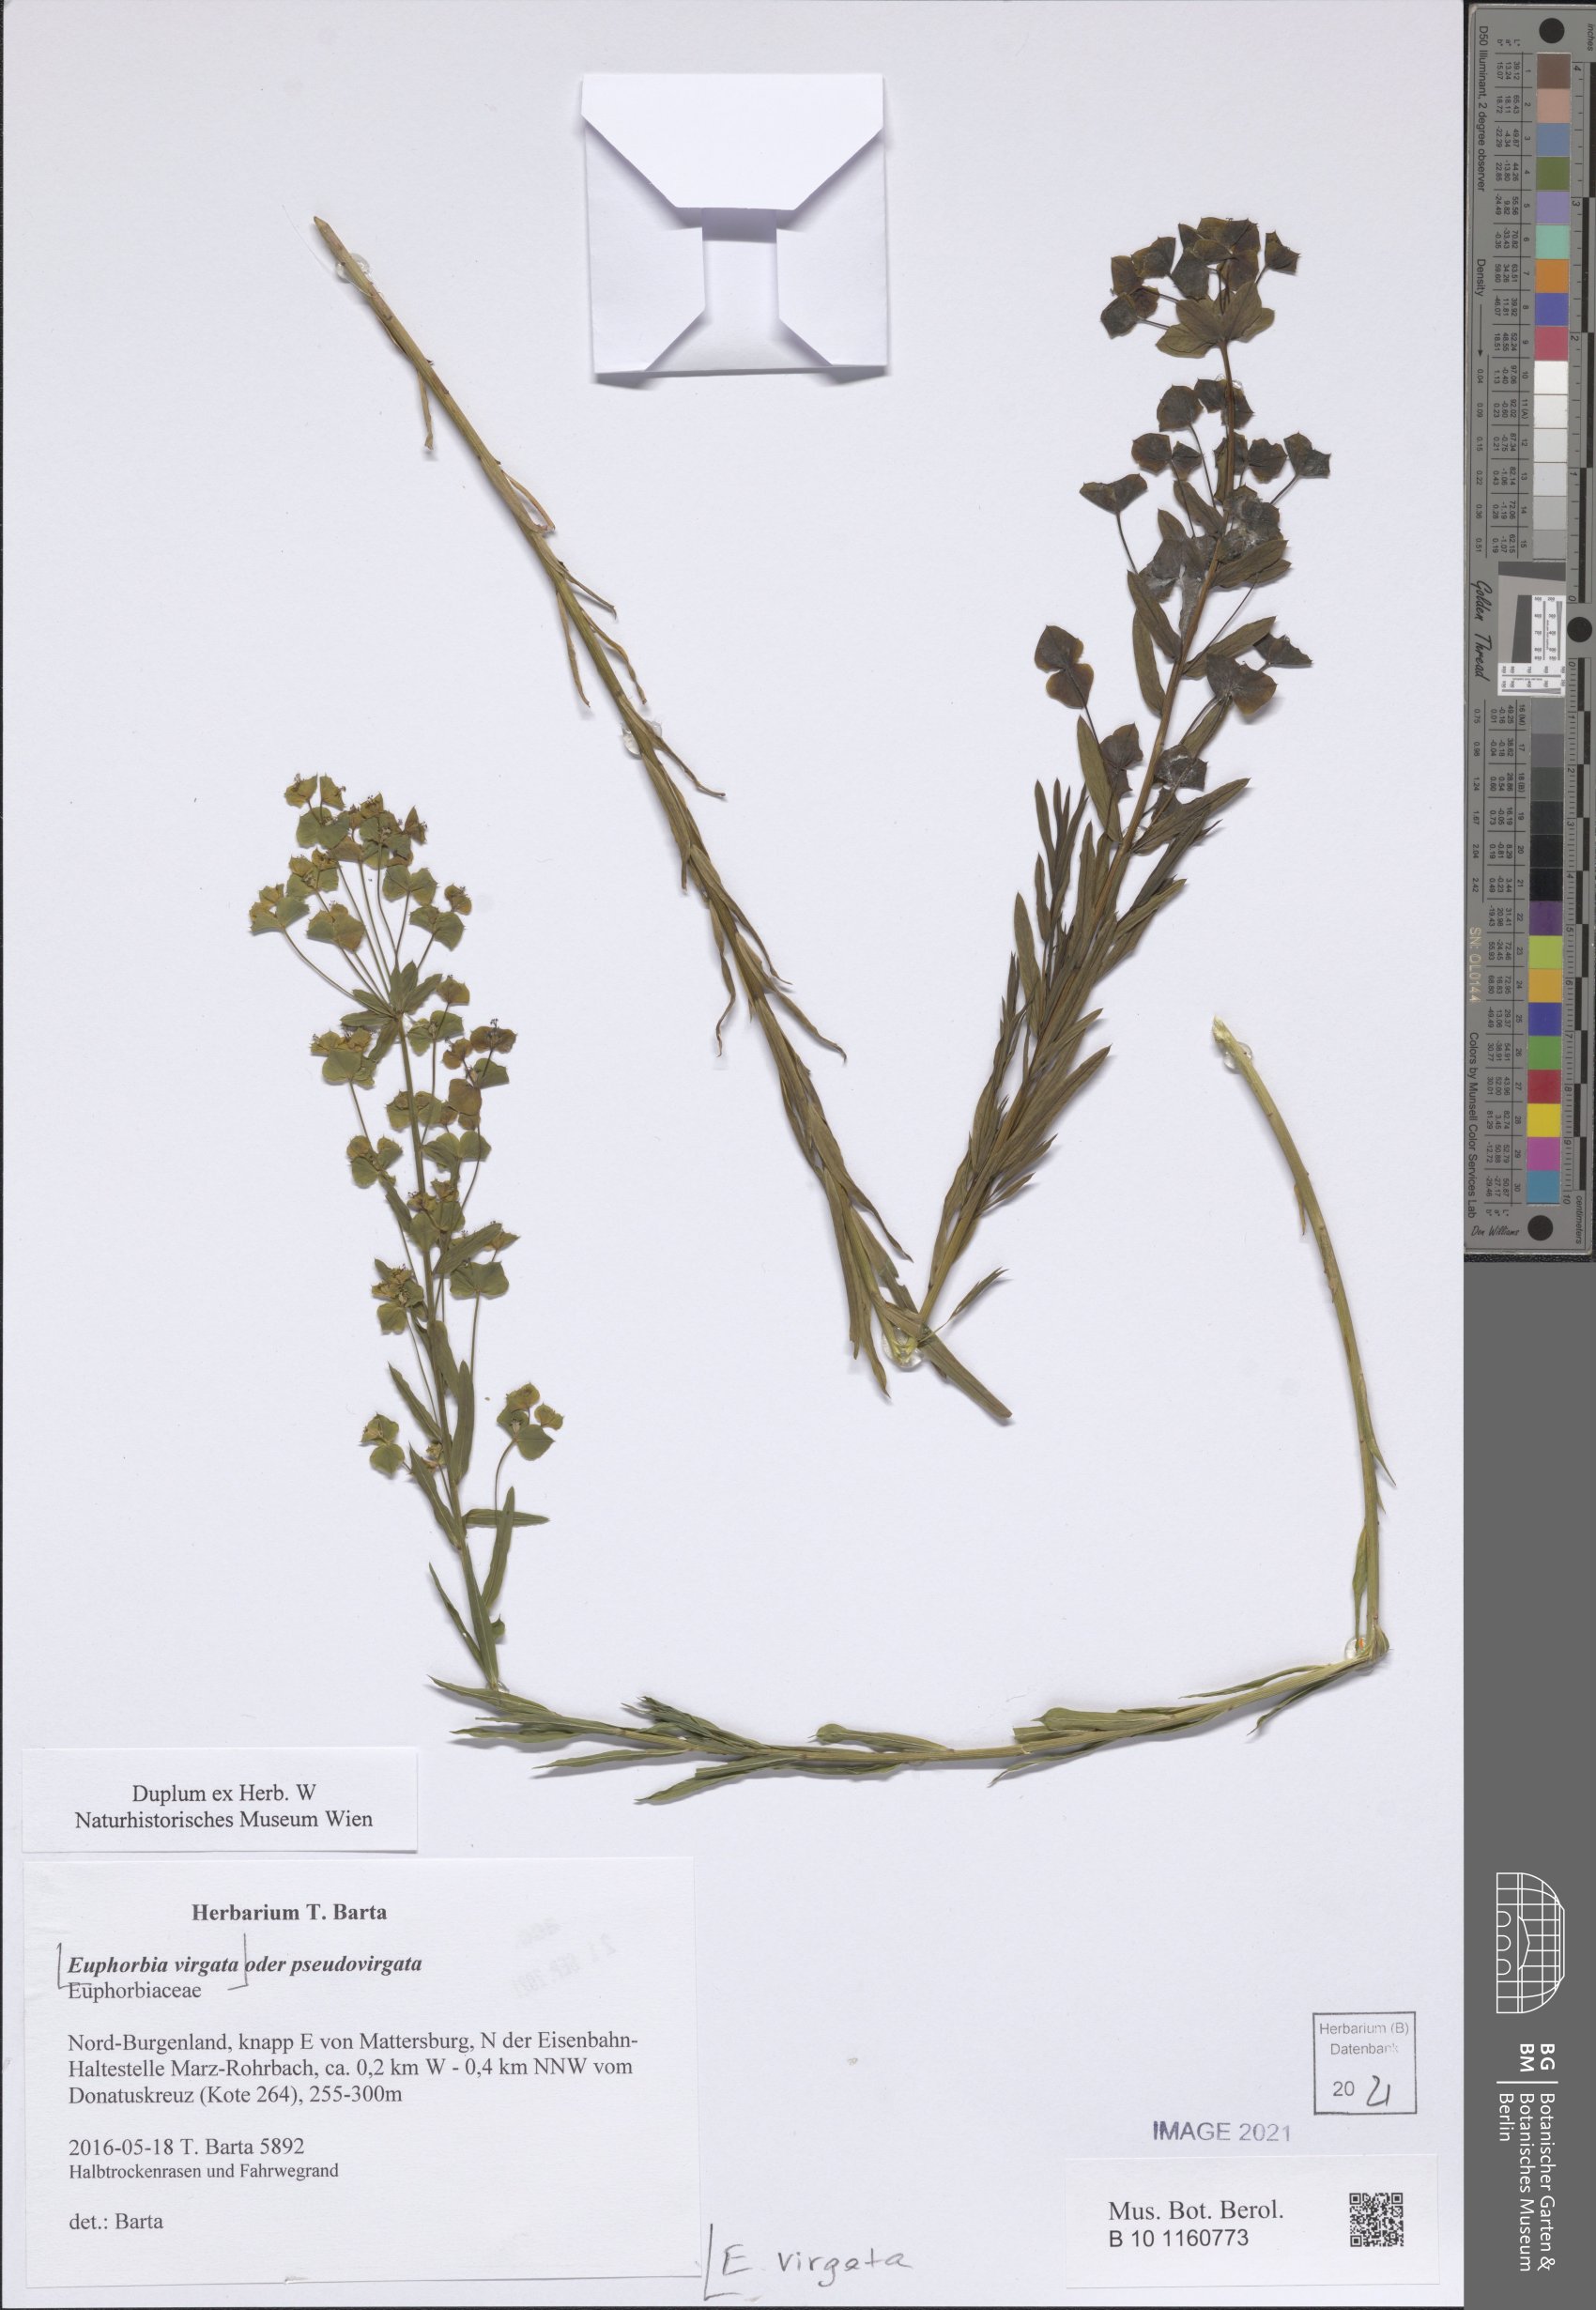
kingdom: Plantae
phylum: Tracheophyta
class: Magnoliopsida
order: Malpighiales
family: Euphorbiaceae
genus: Euphorbia
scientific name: Euphorbia virgata
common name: Leafy spurge
